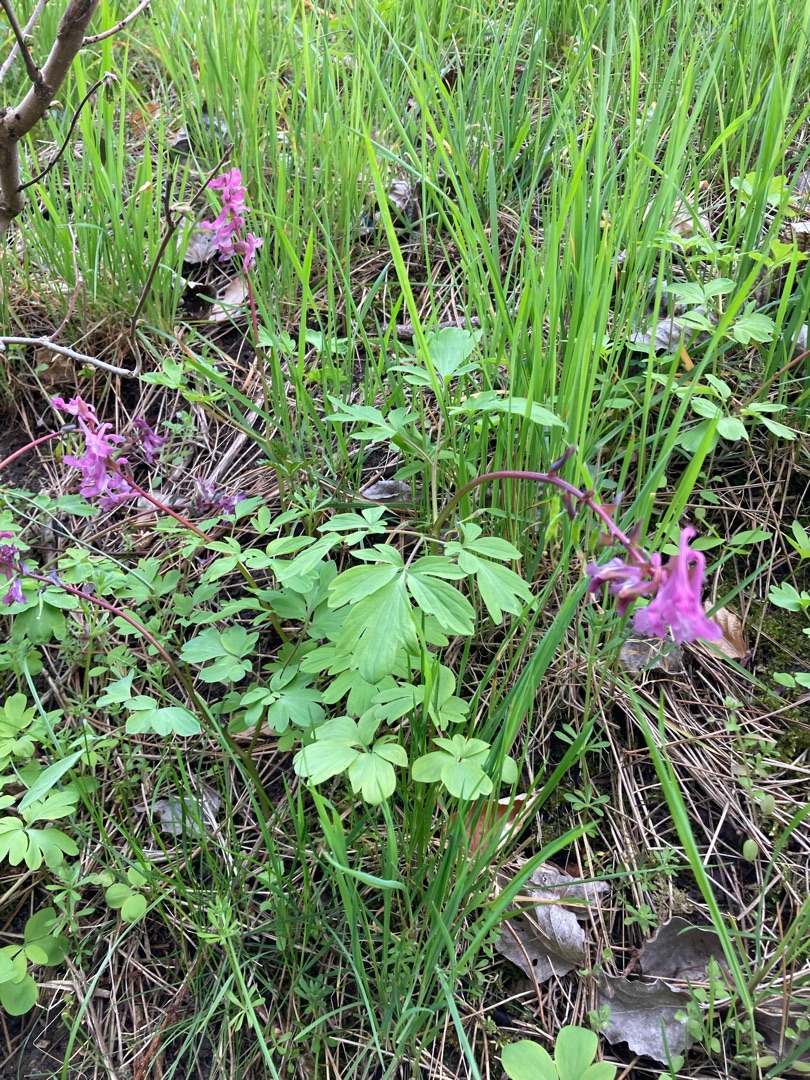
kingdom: Plantae
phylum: Tracheophyta
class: Magnoliopsida
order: Ranunculales
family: Papaveraceae
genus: Corydalis
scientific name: Corydalis cava
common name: Hulrodet lærkespore
